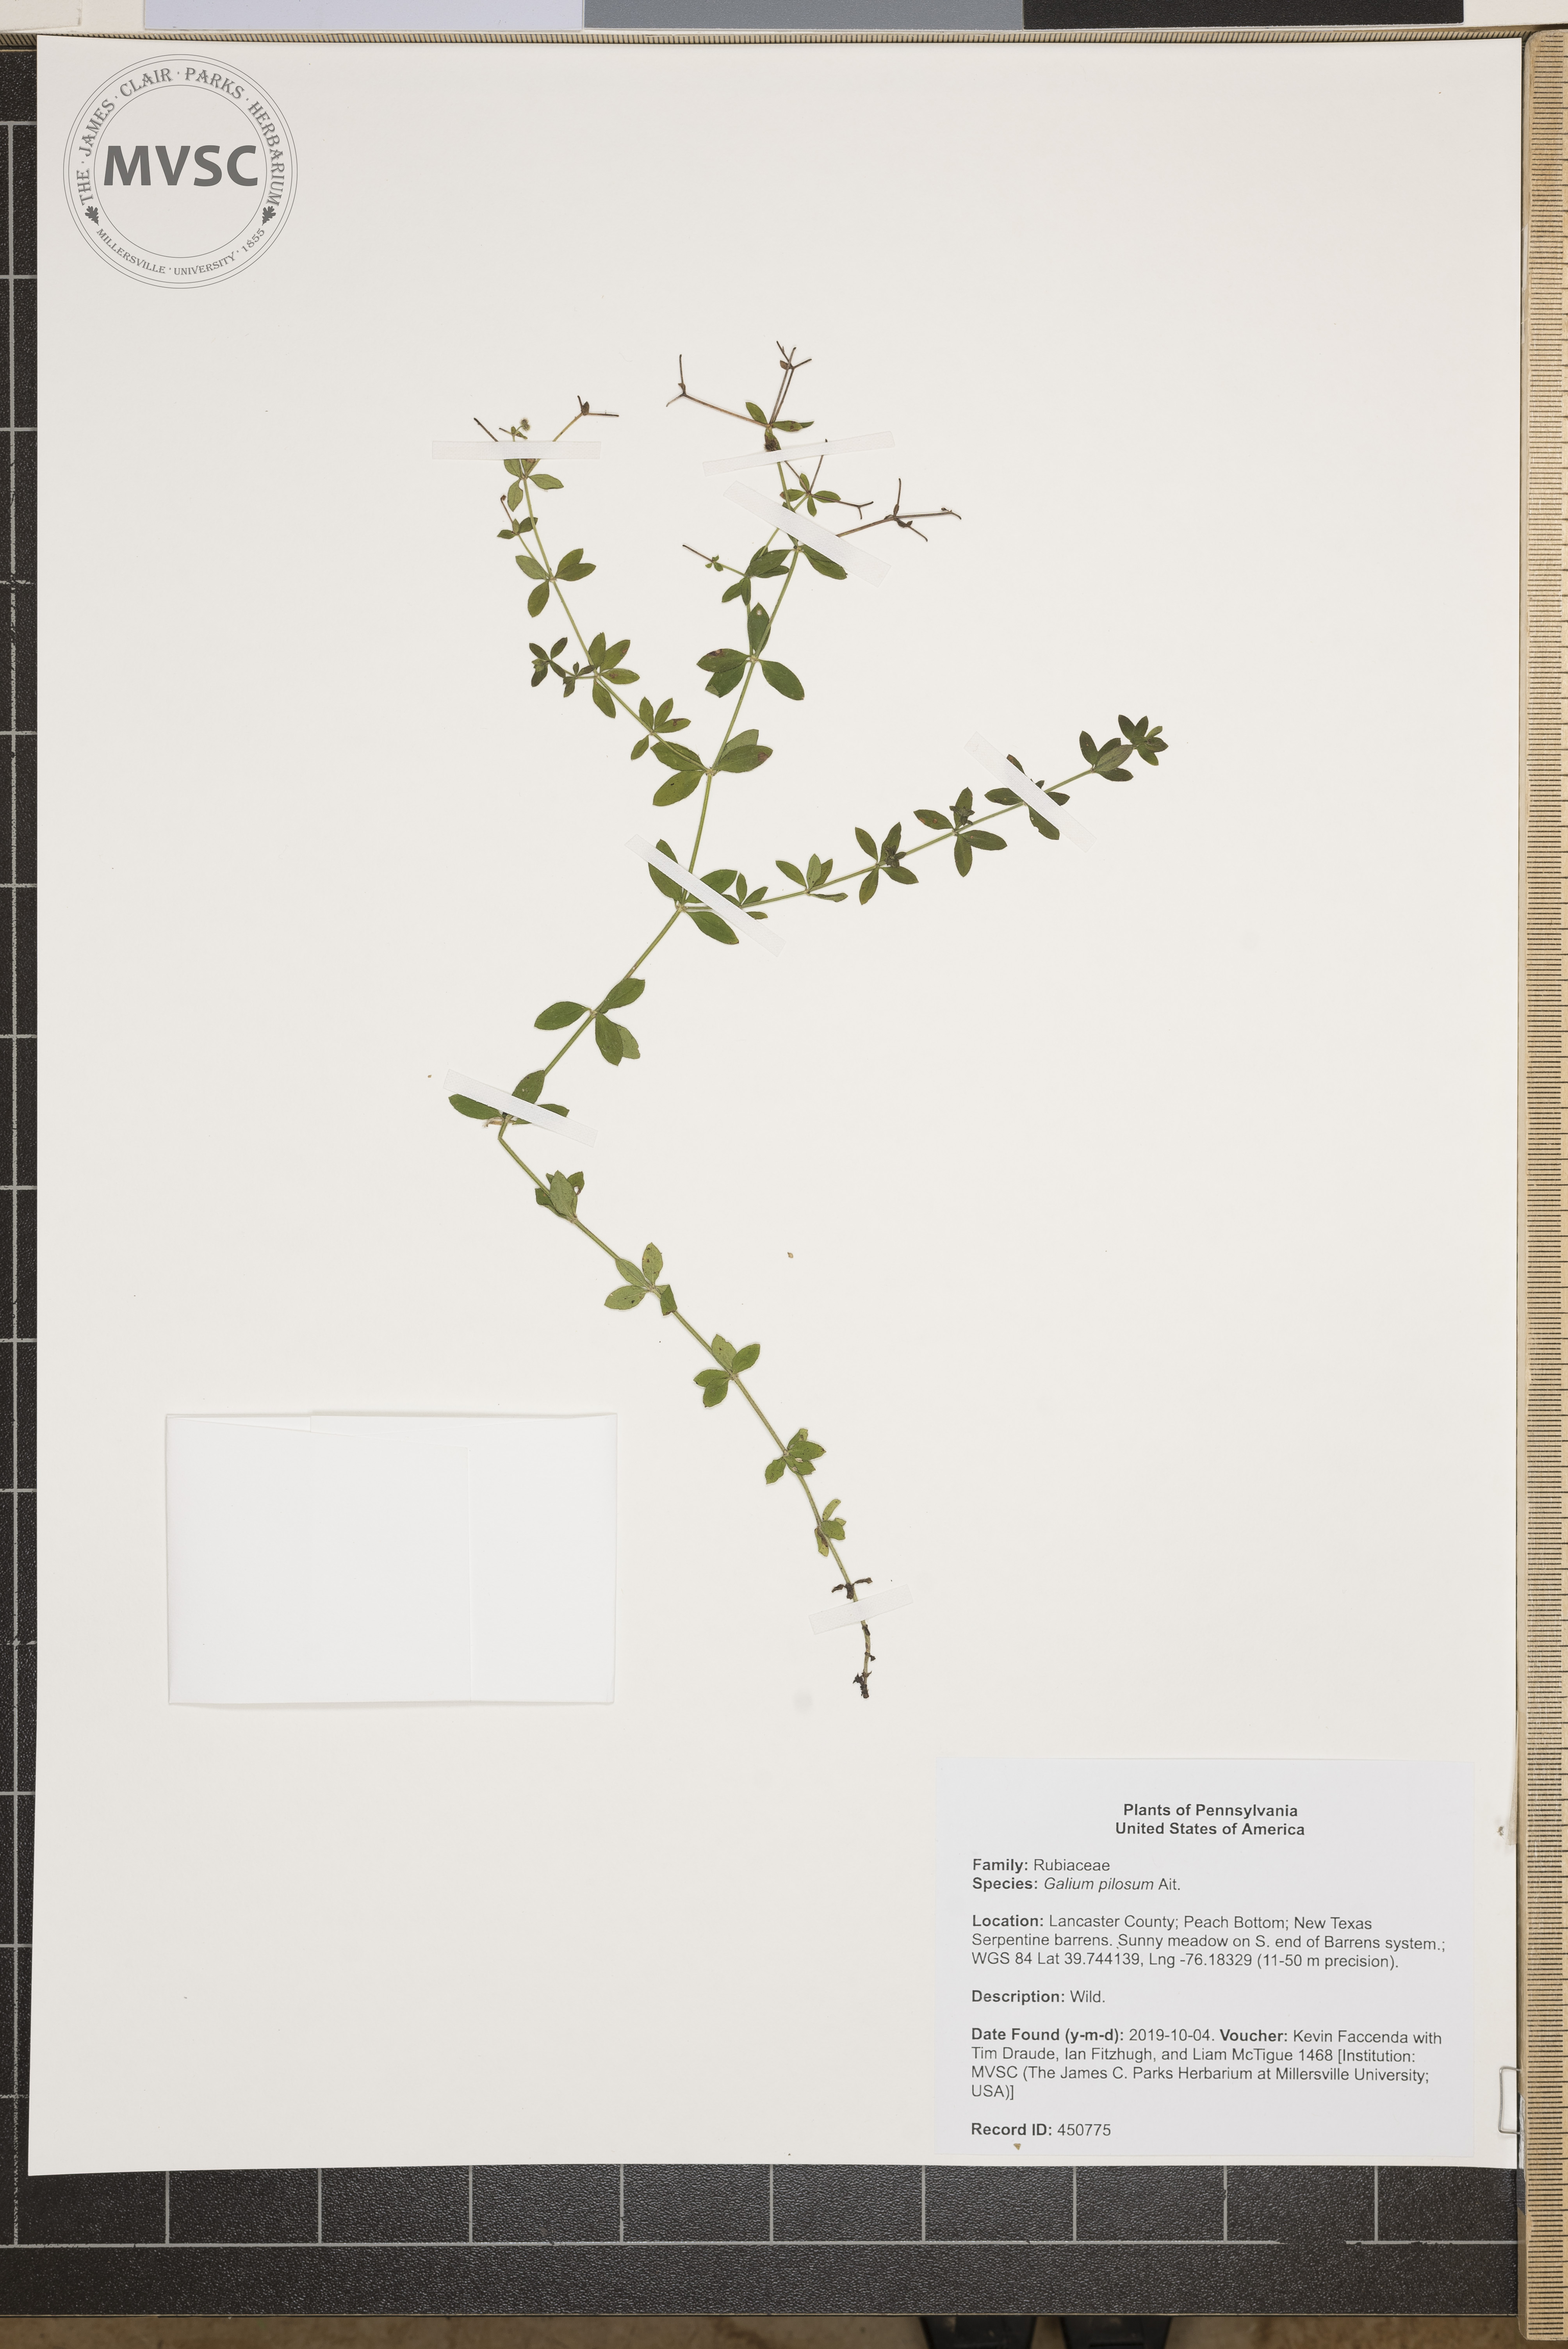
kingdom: Plantae
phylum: Tracheophyta
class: Magnoliopsida
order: Gentianales
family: Rubiaceae
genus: Galium
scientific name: Galium pilosum
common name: Hairy bedstraw
